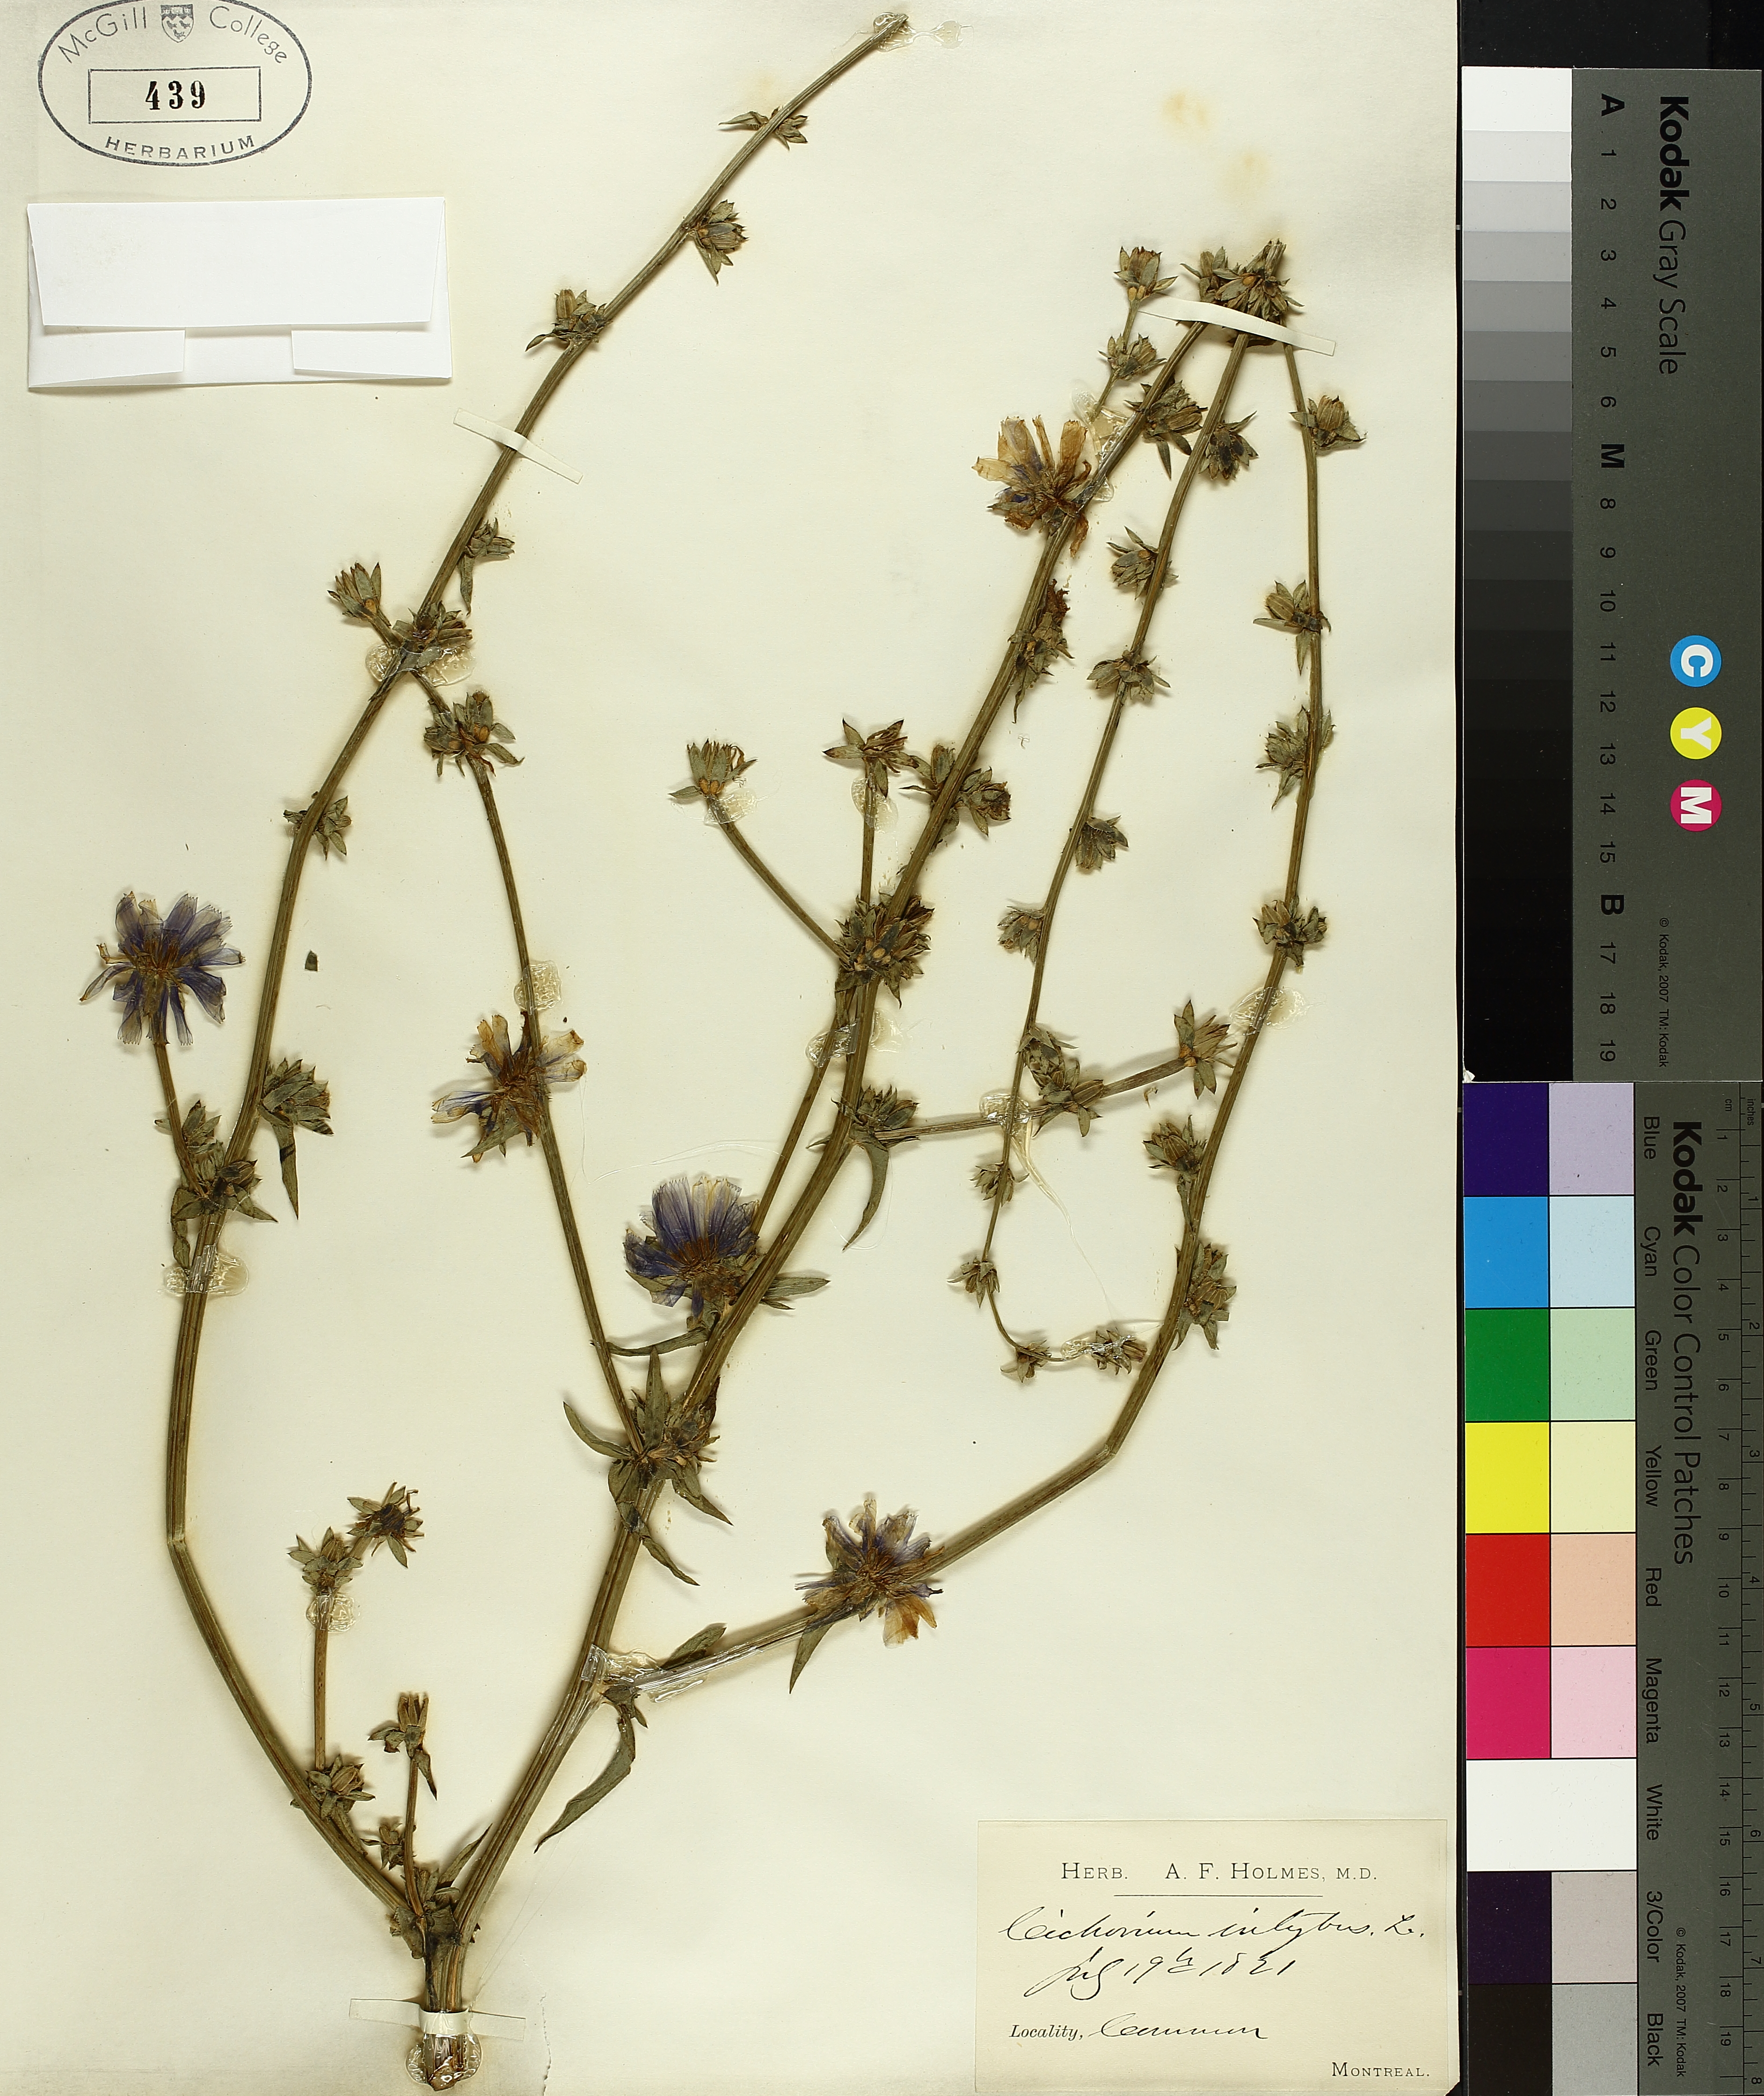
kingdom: Plantae
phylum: Tracheophyta
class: Magnoliopsida
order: Asterales
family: Asteraceae
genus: Cichorium
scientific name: Cichorium intybus
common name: Chicory
